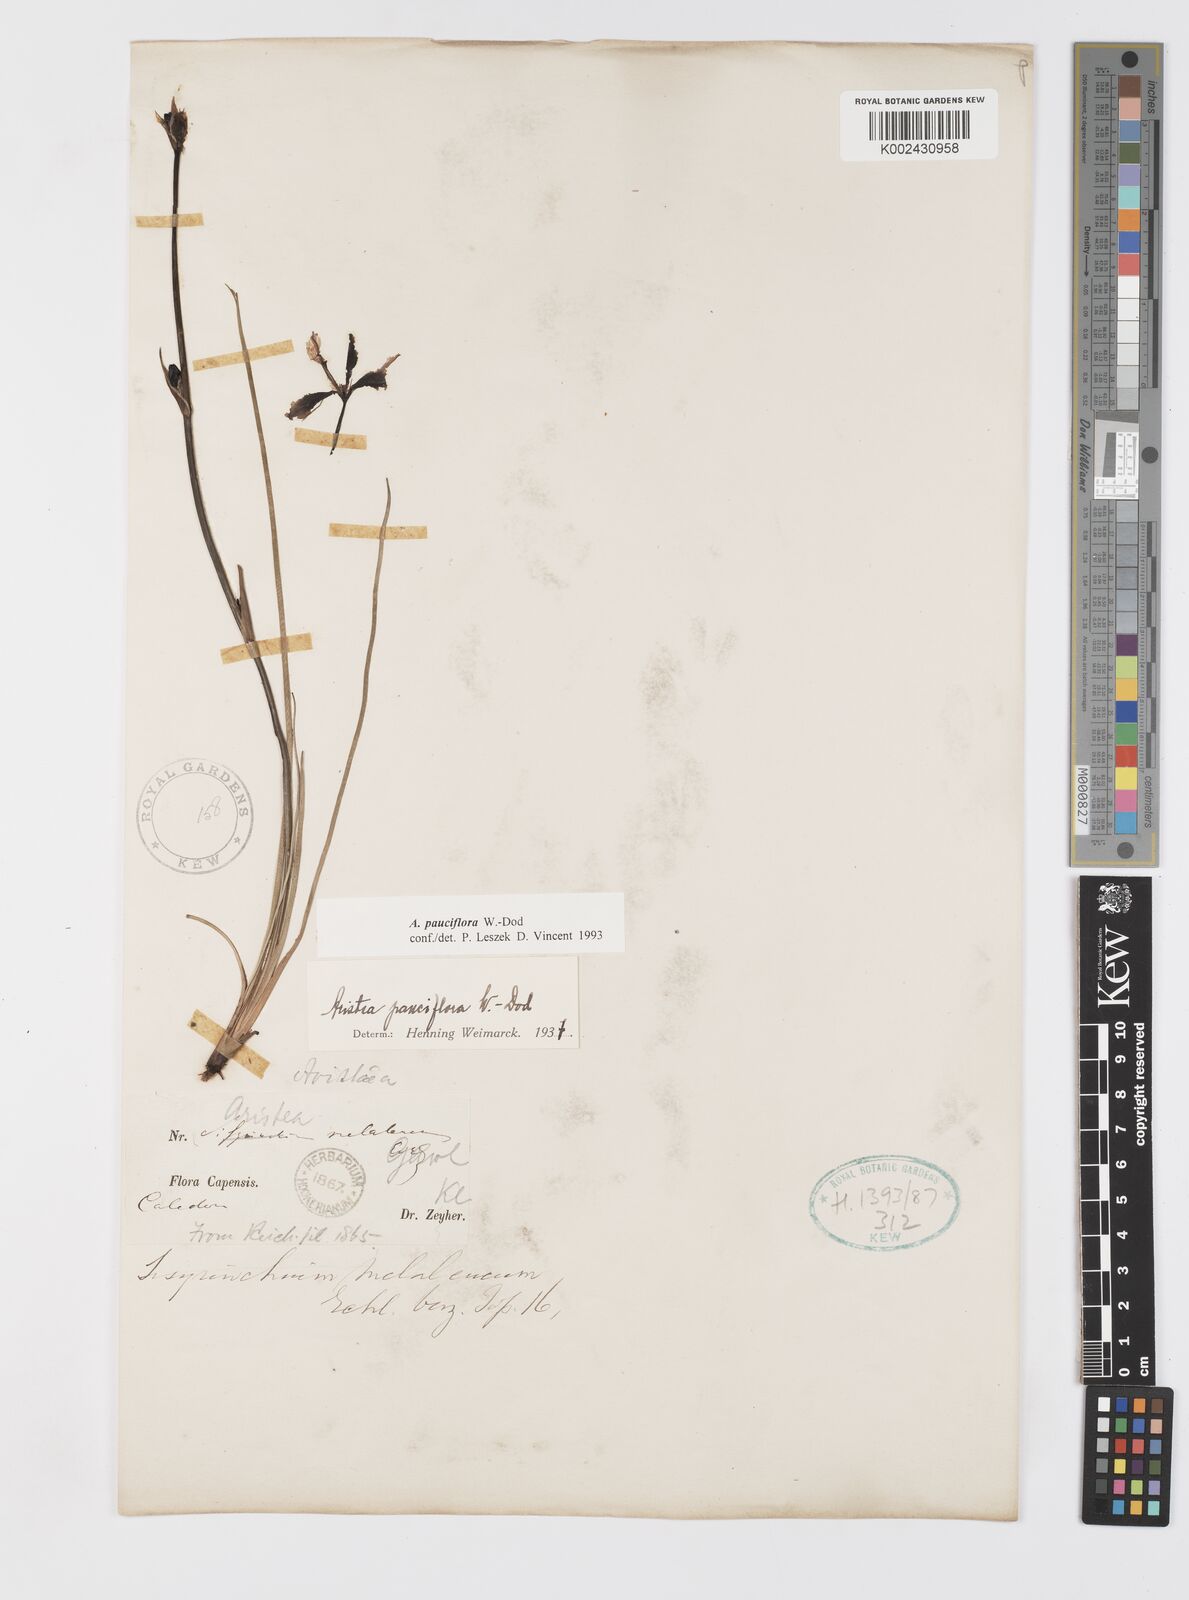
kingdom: Plantae
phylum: Tracheophyta
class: Liliopsida
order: Asparagales
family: Iridaceae
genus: Aristea
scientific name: Aristea pauciflora
